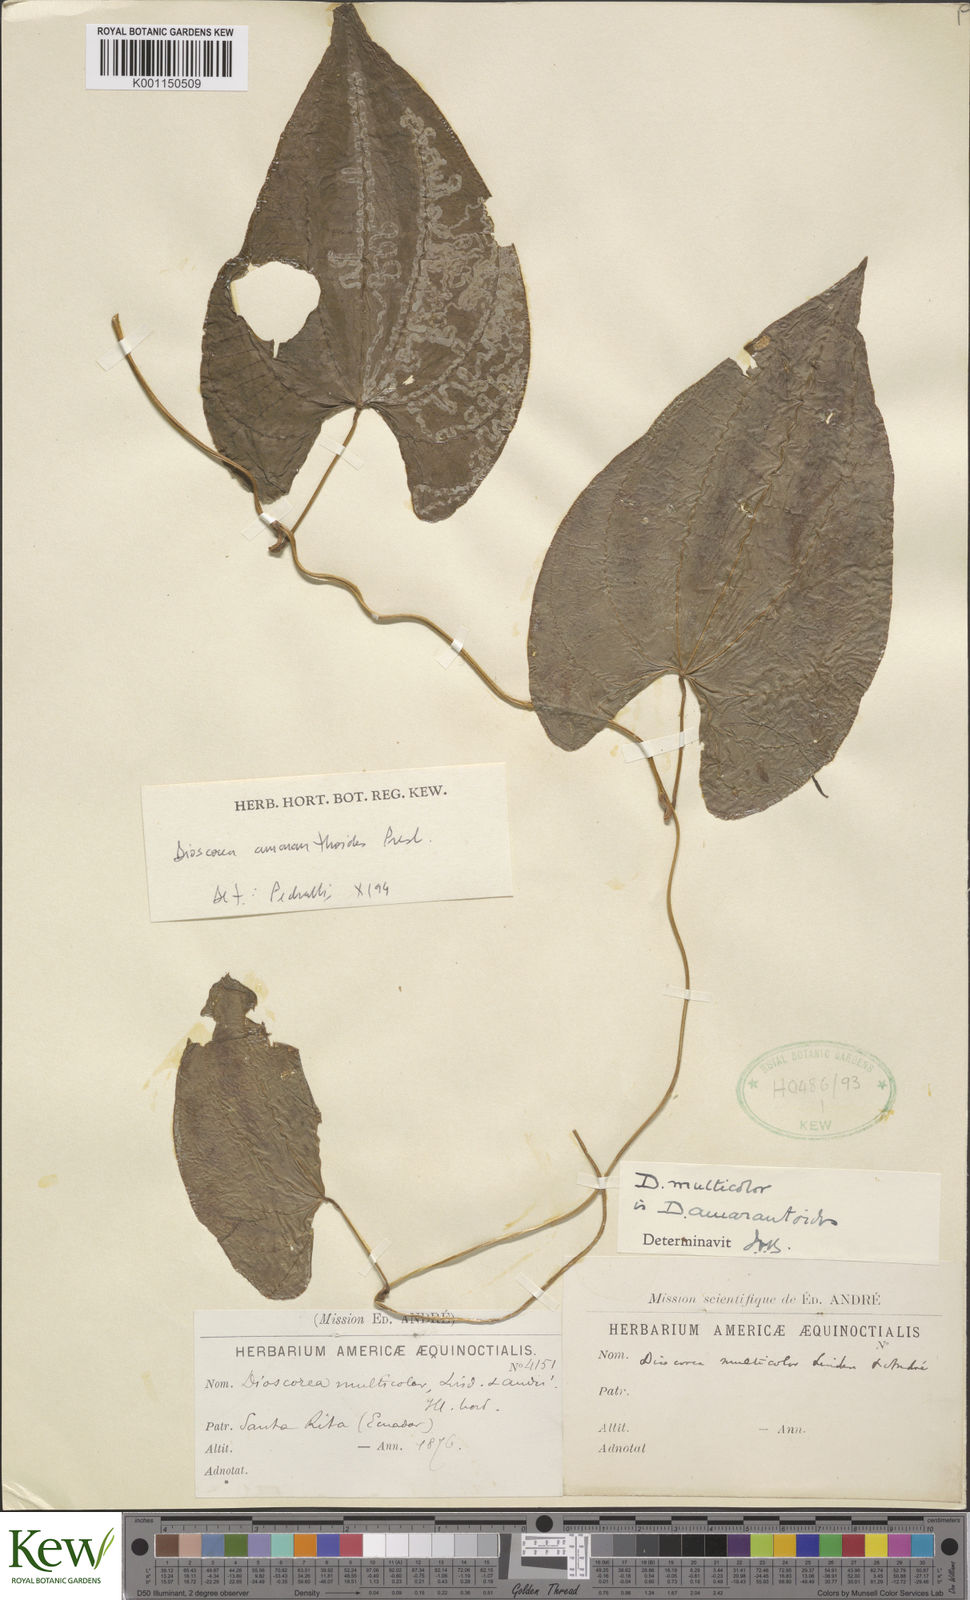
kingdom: Plantae
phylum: Tracheophyta
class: Liliopsida
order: Dioscoreales
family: Dioscoreaceae
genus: Dioscorea
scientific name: Dioscorea amaranthoides
